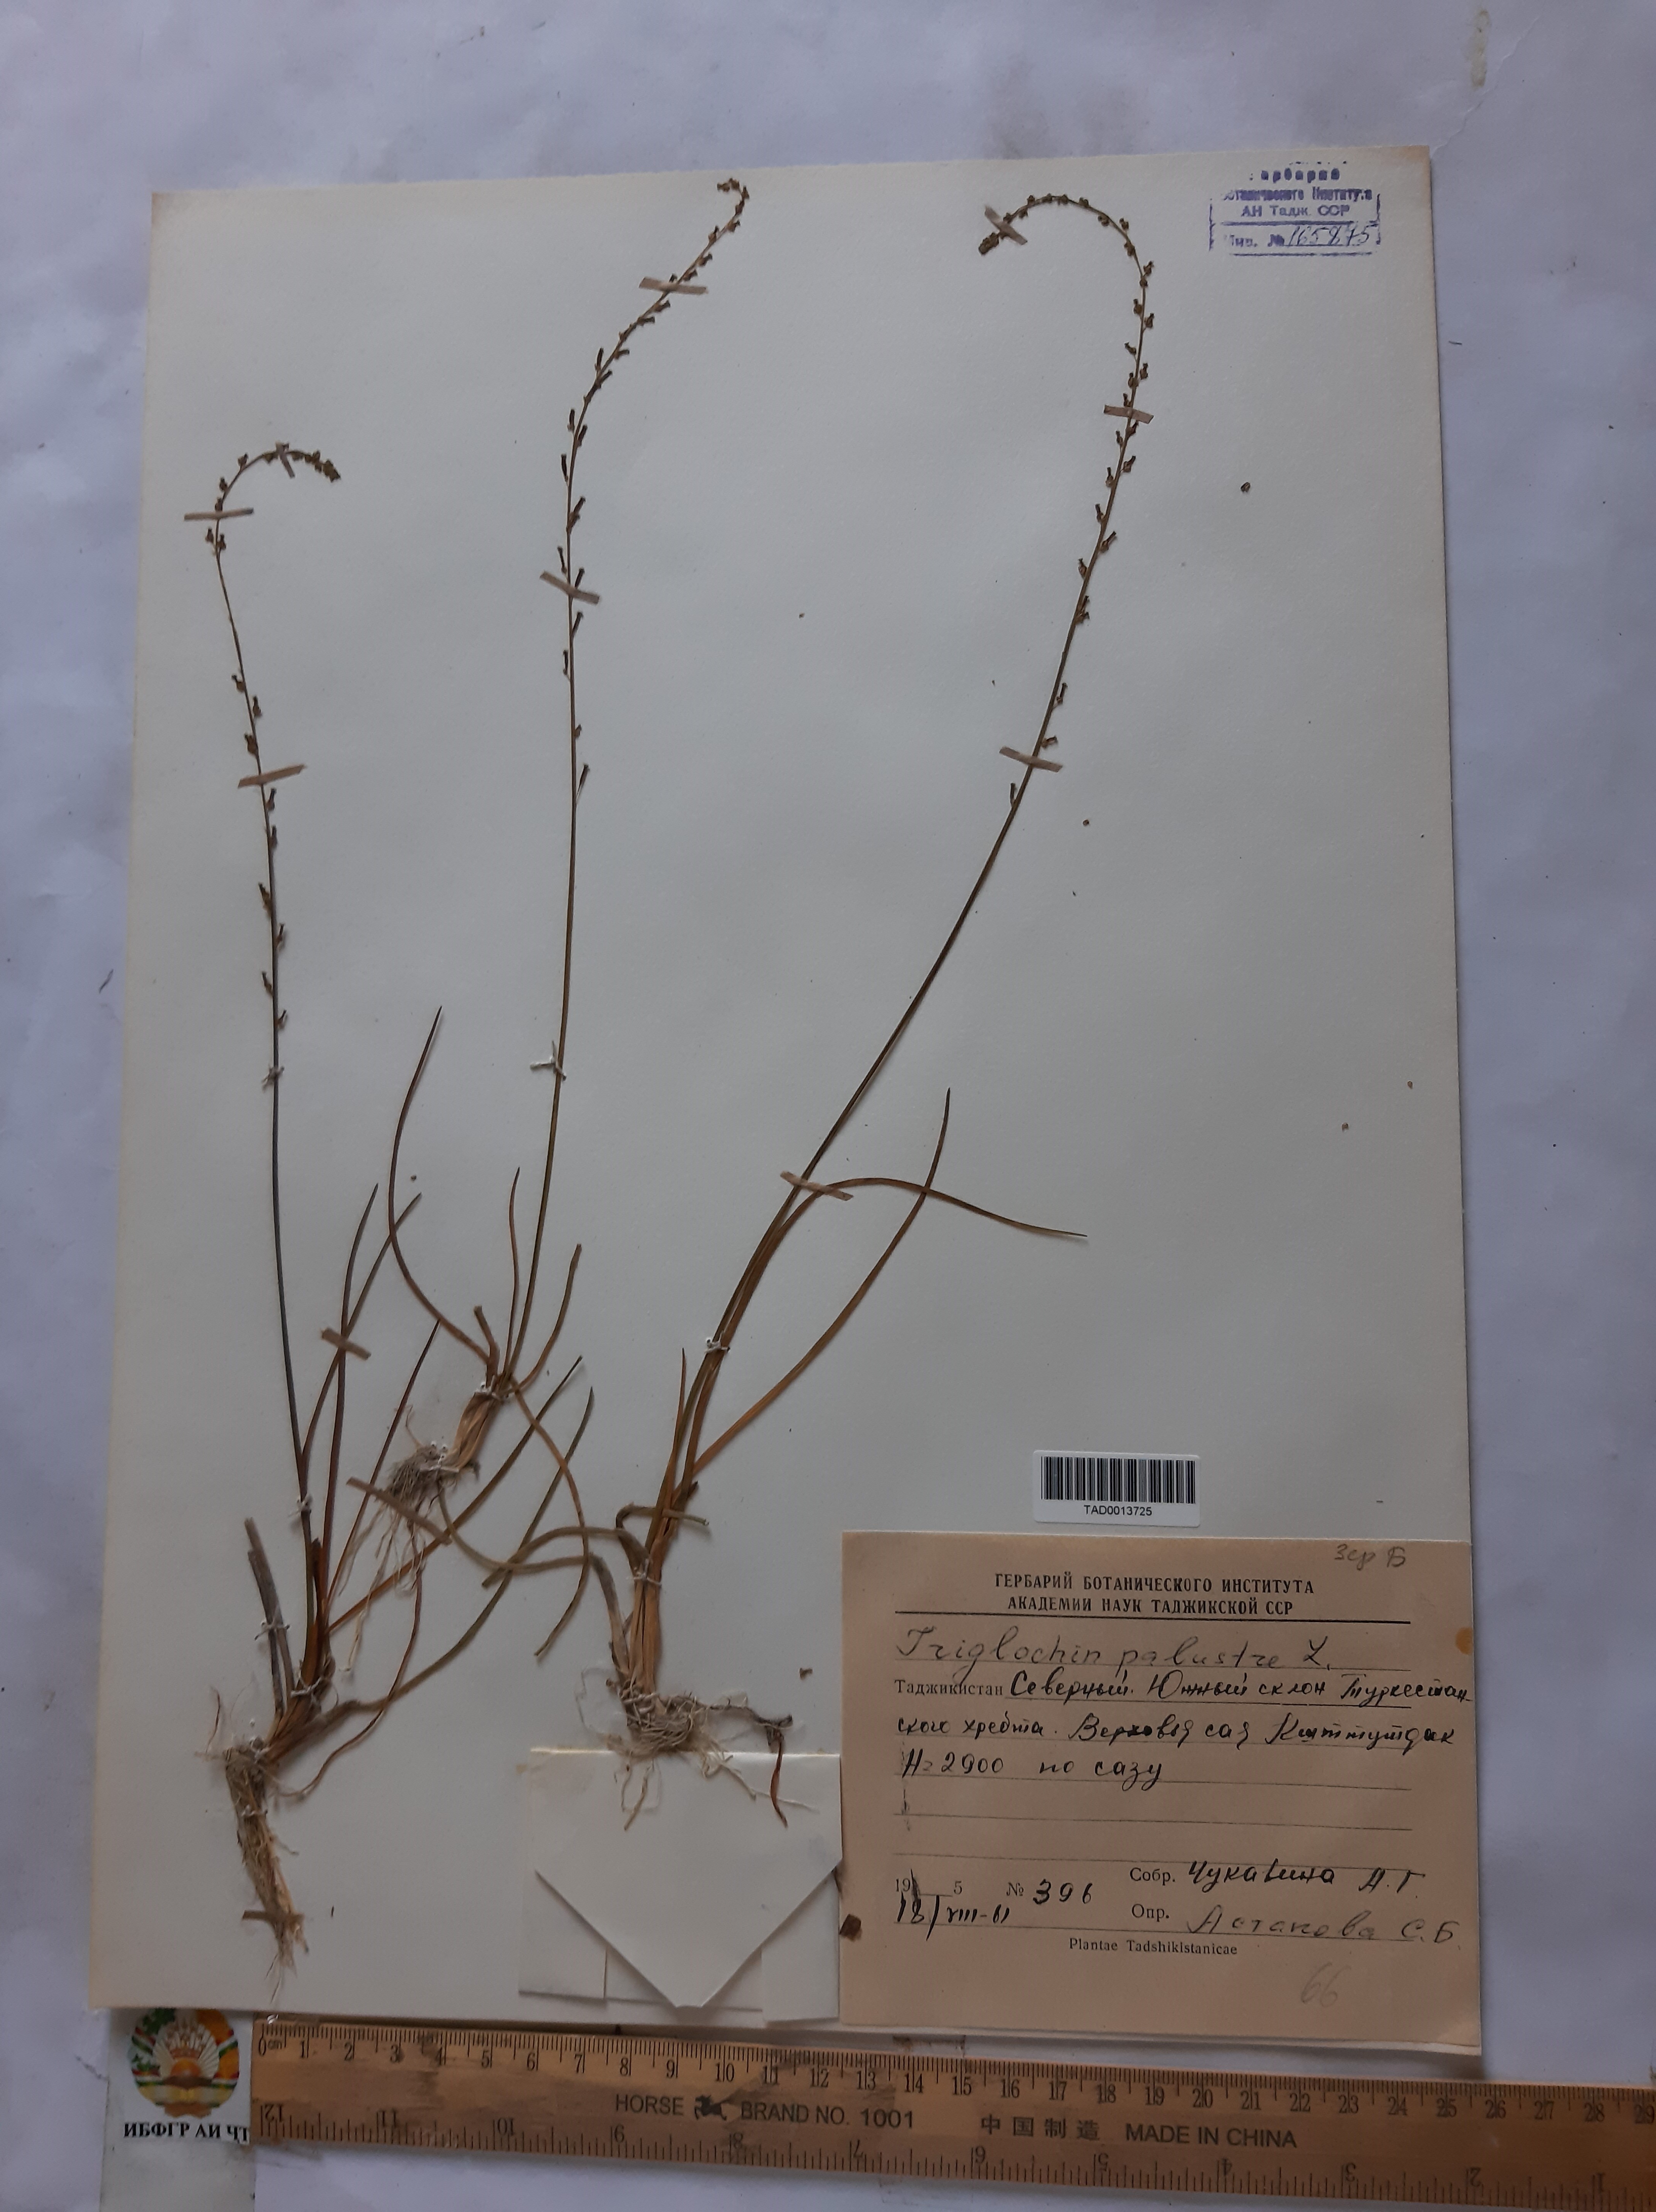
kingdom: Plantae
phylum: Tracheophyta
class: Liliopsida
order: Alismatales
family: Juncaginaceae
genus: Triglochin
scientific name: Triglochin palustris
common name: Marsh arrowgrass
